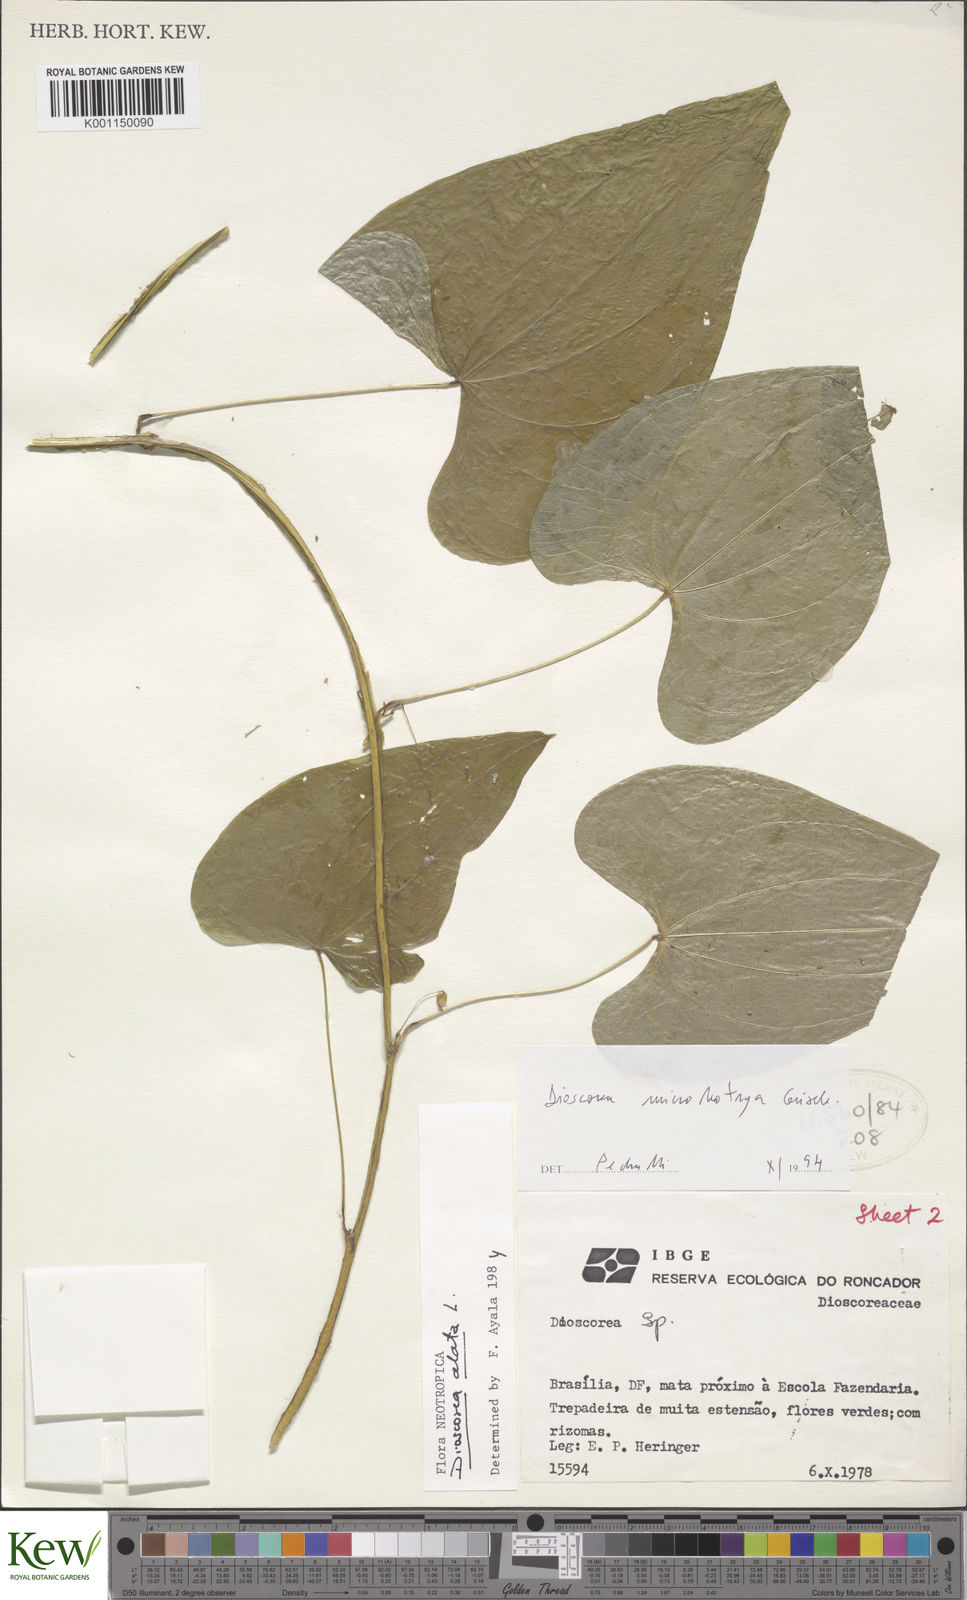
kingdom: Plantae
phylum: Tracheophyta
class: Liliopsida
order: Dioscoreales
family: Dioscoreaceae
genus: Dioscorea
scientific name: Dioscorea alata
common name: Water yam
